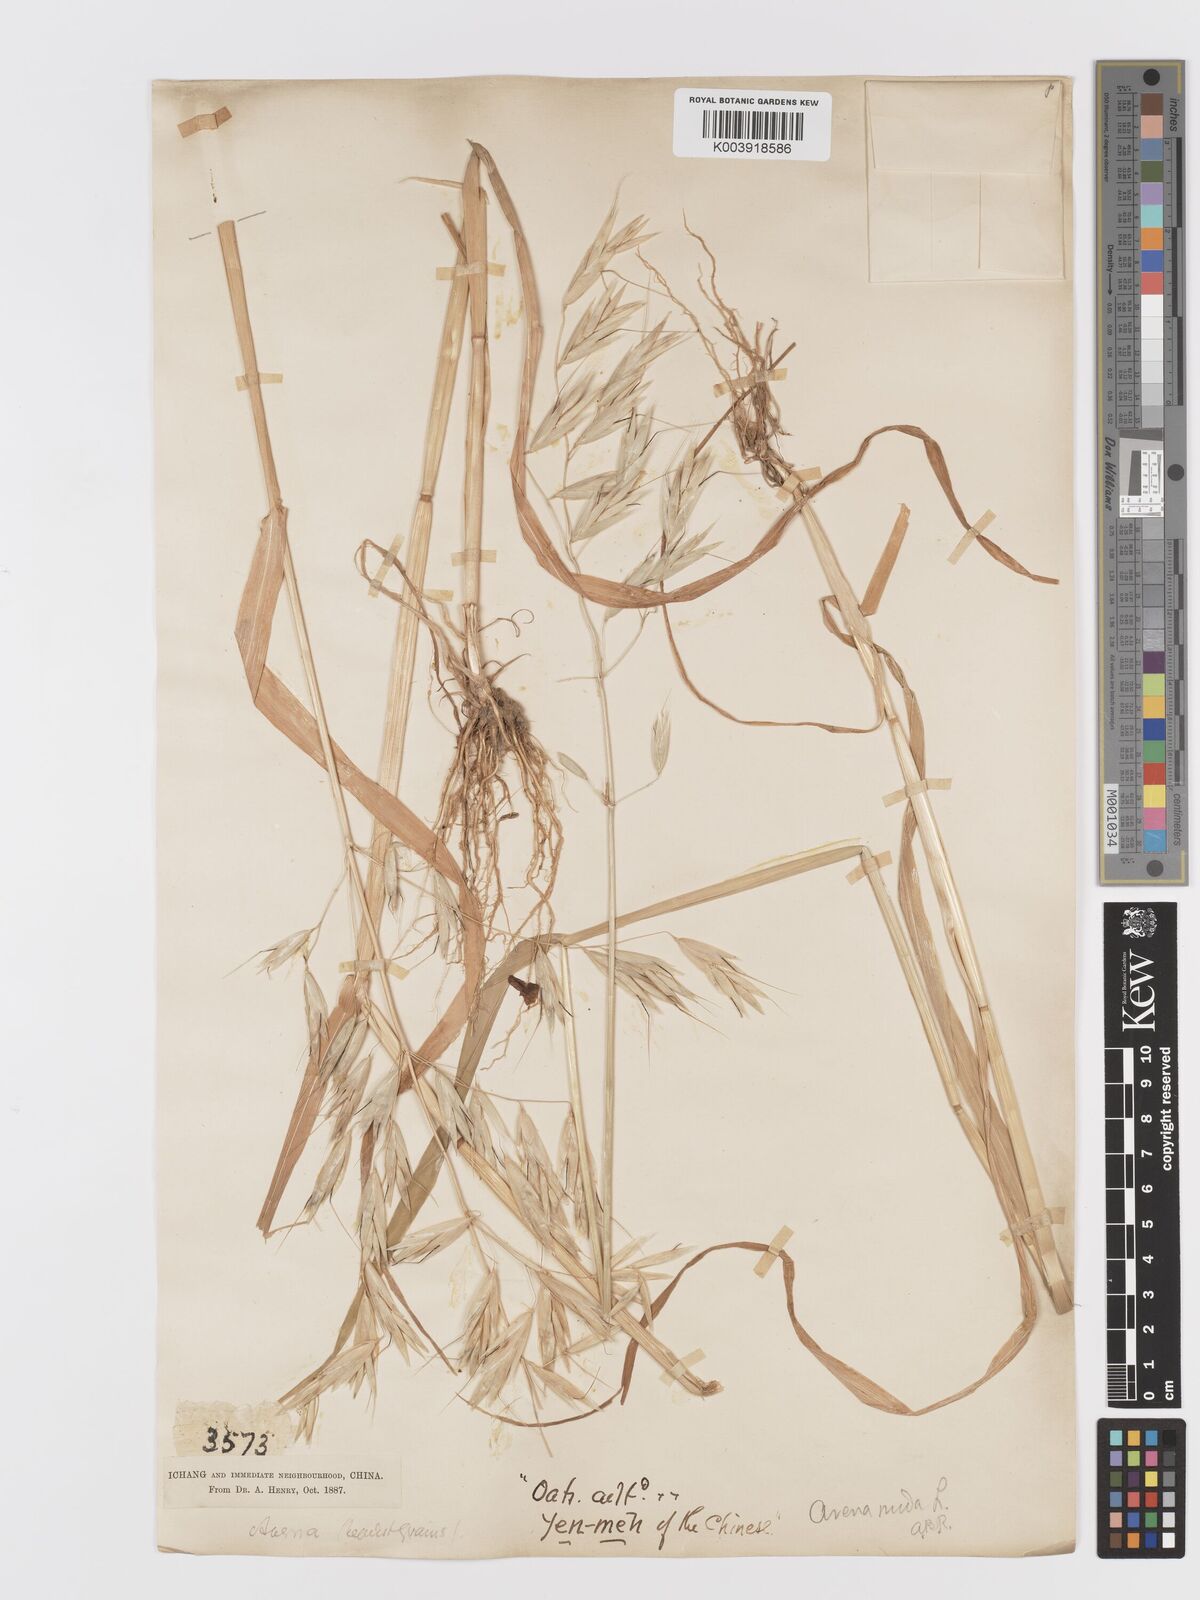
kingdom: Plantae
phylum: Tracheophyta
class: Liliopsida
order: Poales
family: Poaceae
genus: Avena
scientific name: Avena chinensis
